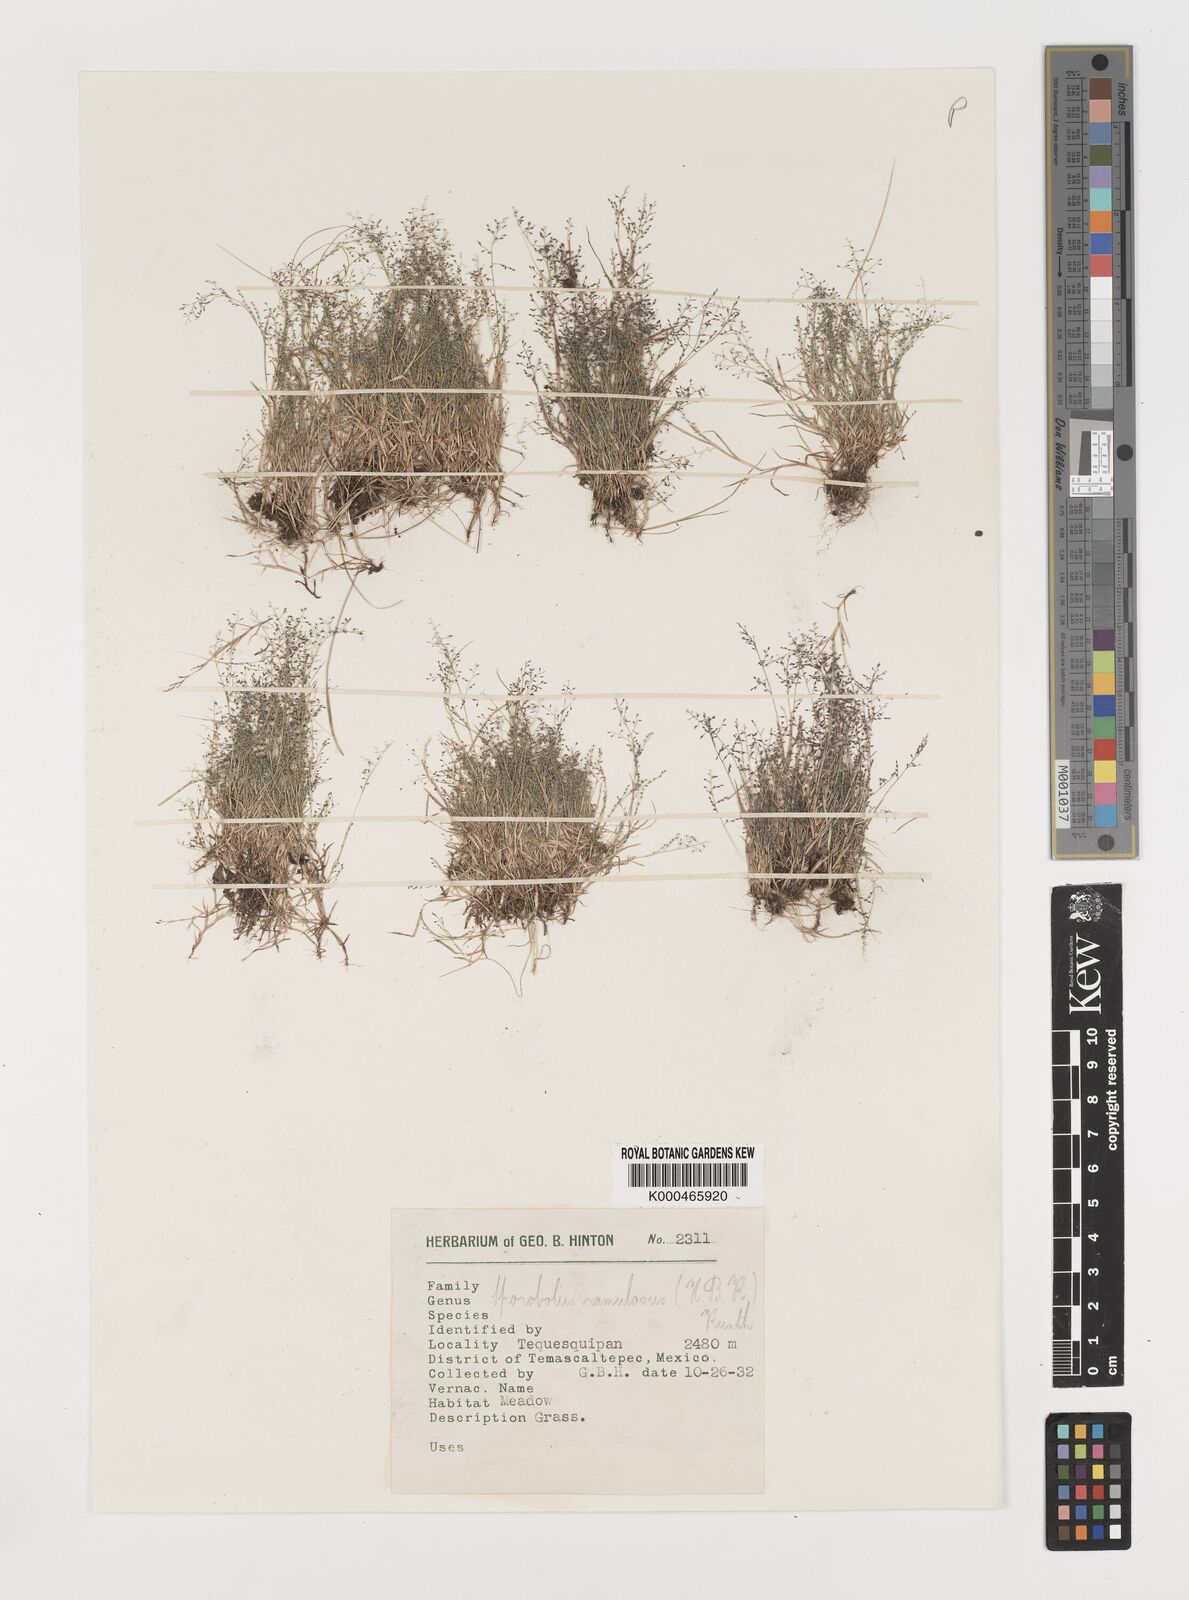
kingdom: Plantae
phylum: Tracheophyta
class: Liliopsida
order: Poales
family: Poaceae
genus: Muhlenbergia
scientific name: Muhlenbergia ramulosa
